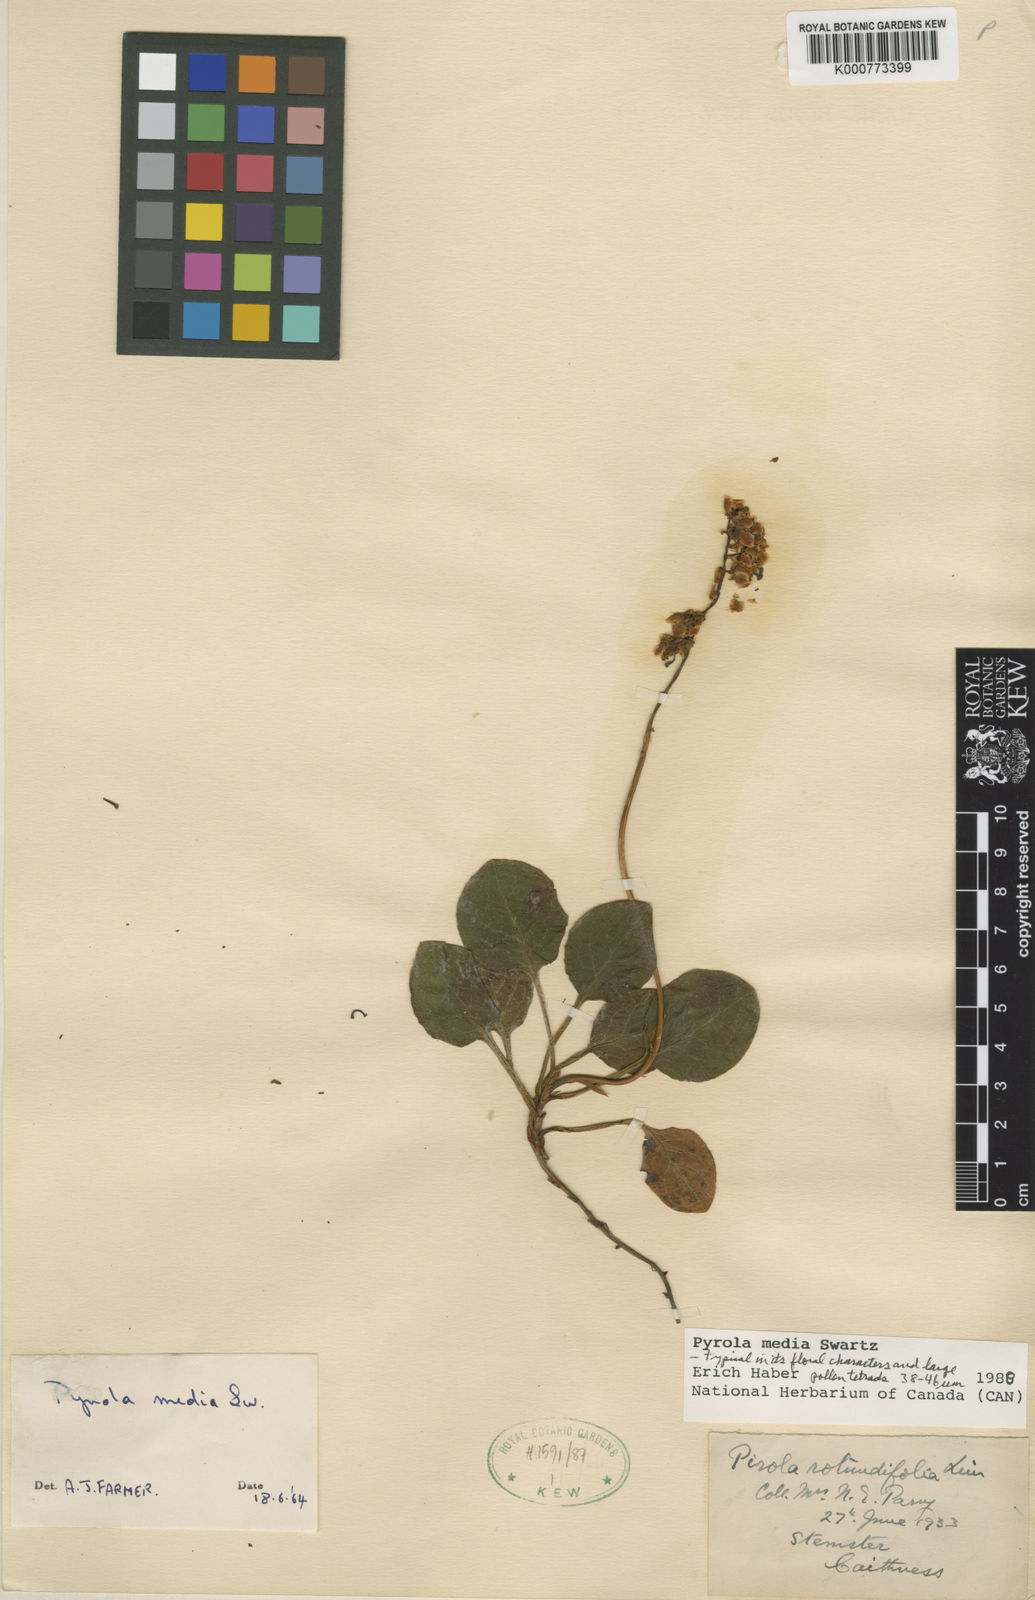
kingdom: Plantae
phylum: Tracheophyta
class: Magnoliopsida
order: Ericales
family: Ericaceae
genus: Pyrola
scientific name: Pyrola media
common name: Intermediate wintergreen
